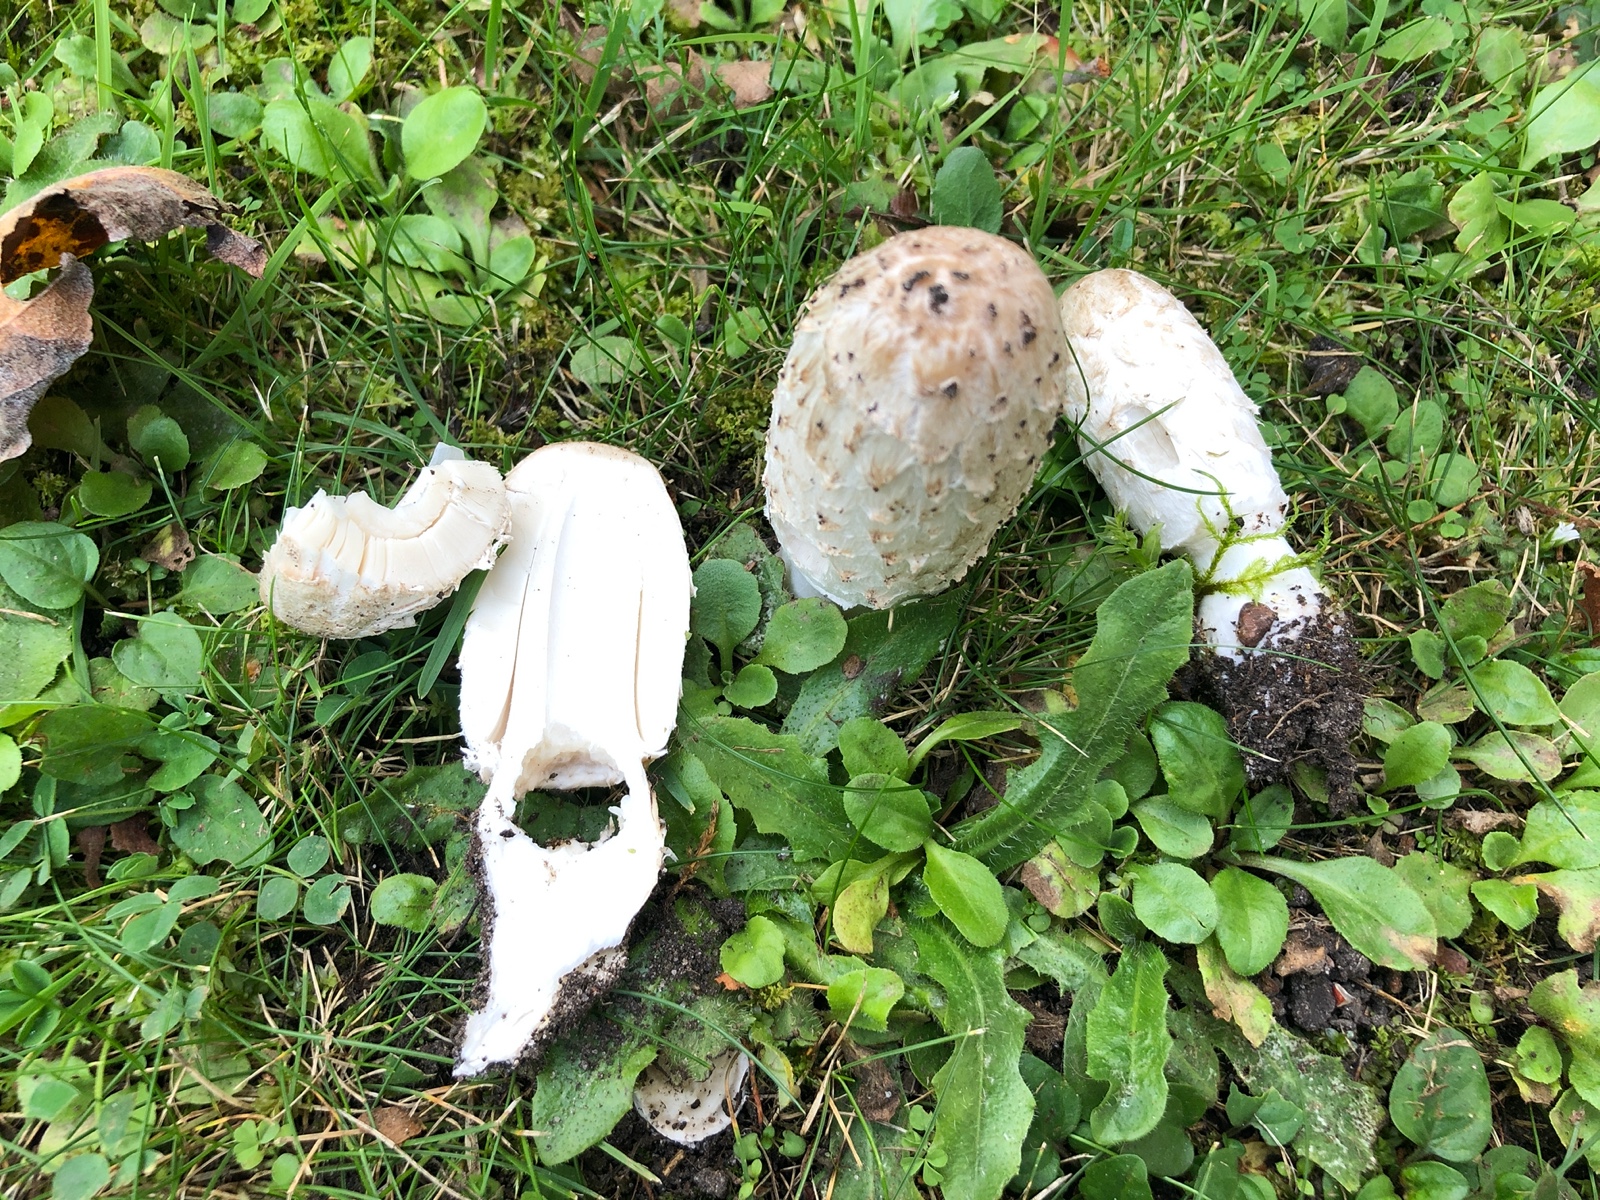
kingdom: Fungi
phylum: Basidiomycota
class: Agaricomycetes
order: Agaricales
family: Agaricaceae
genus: Coprinus
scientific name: Coprinus comatus
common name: stor parykhat
